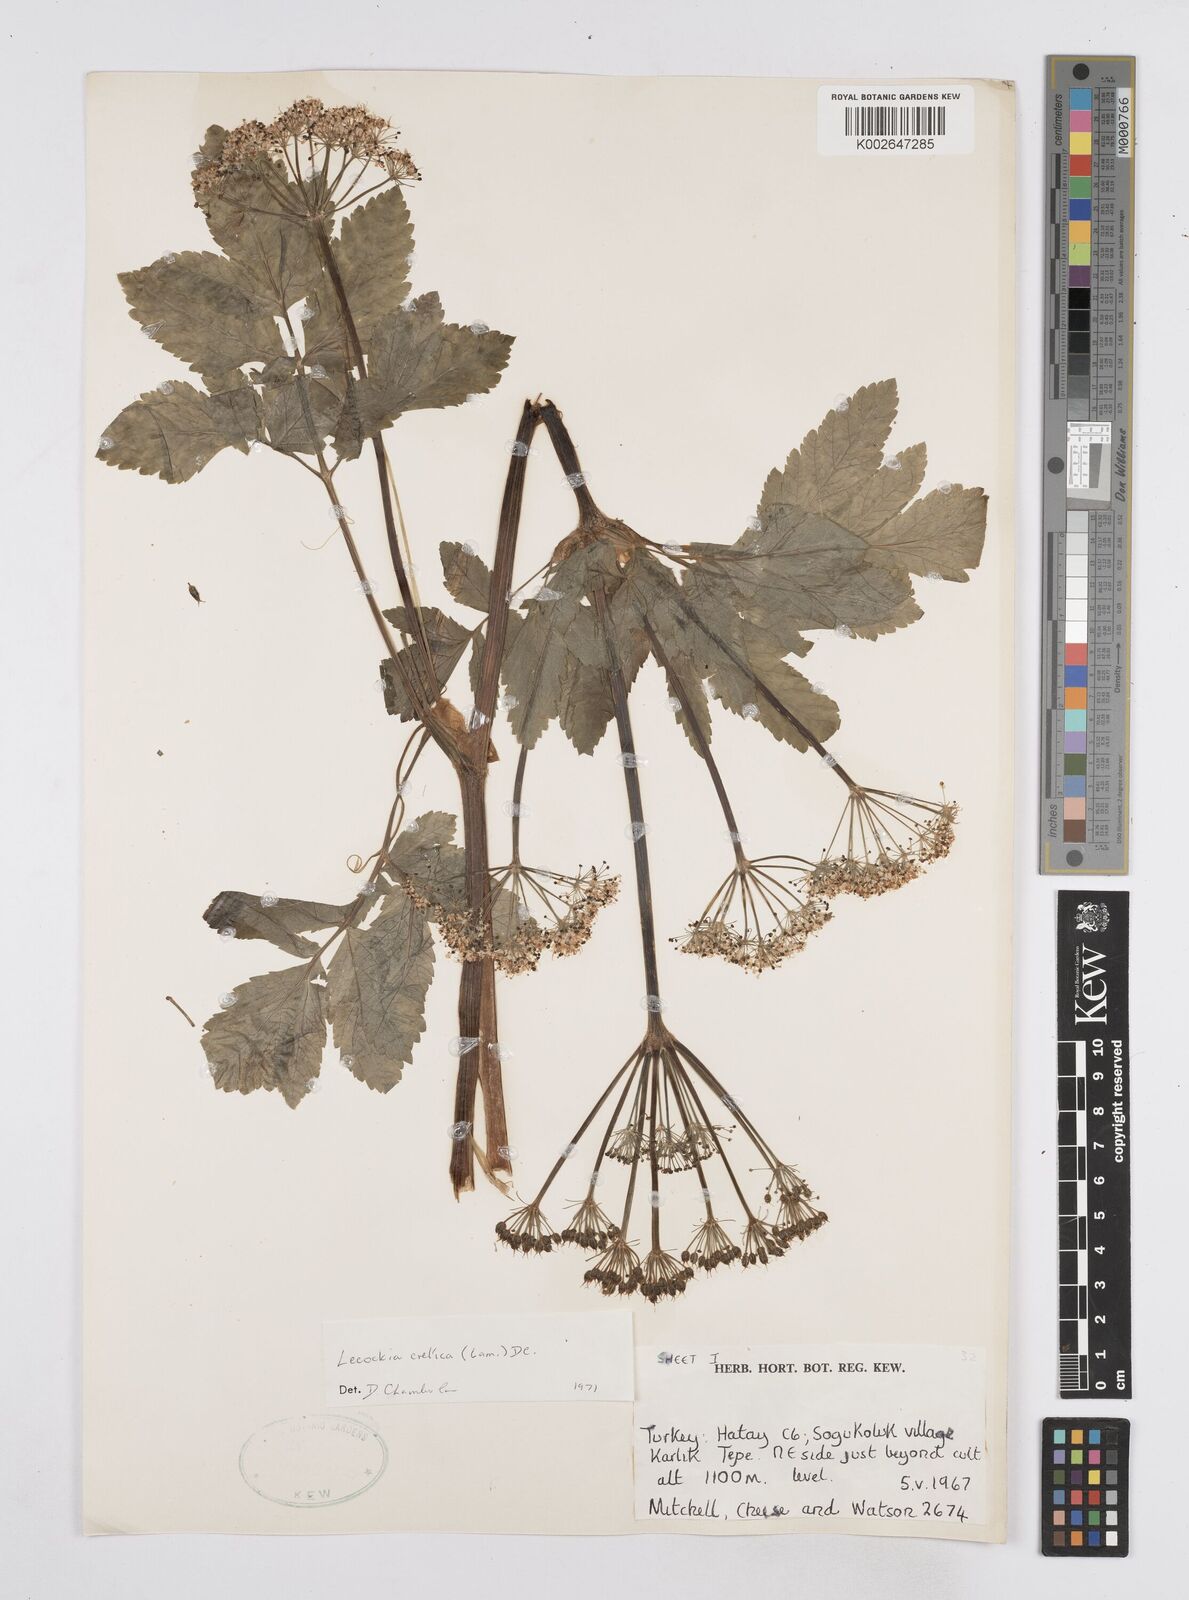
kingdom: Plantae
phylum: Tracheophyta
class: Magnoliopsida
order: Apiales
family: Apiaceae
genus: Lecokia
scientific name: Lecokia cretica
